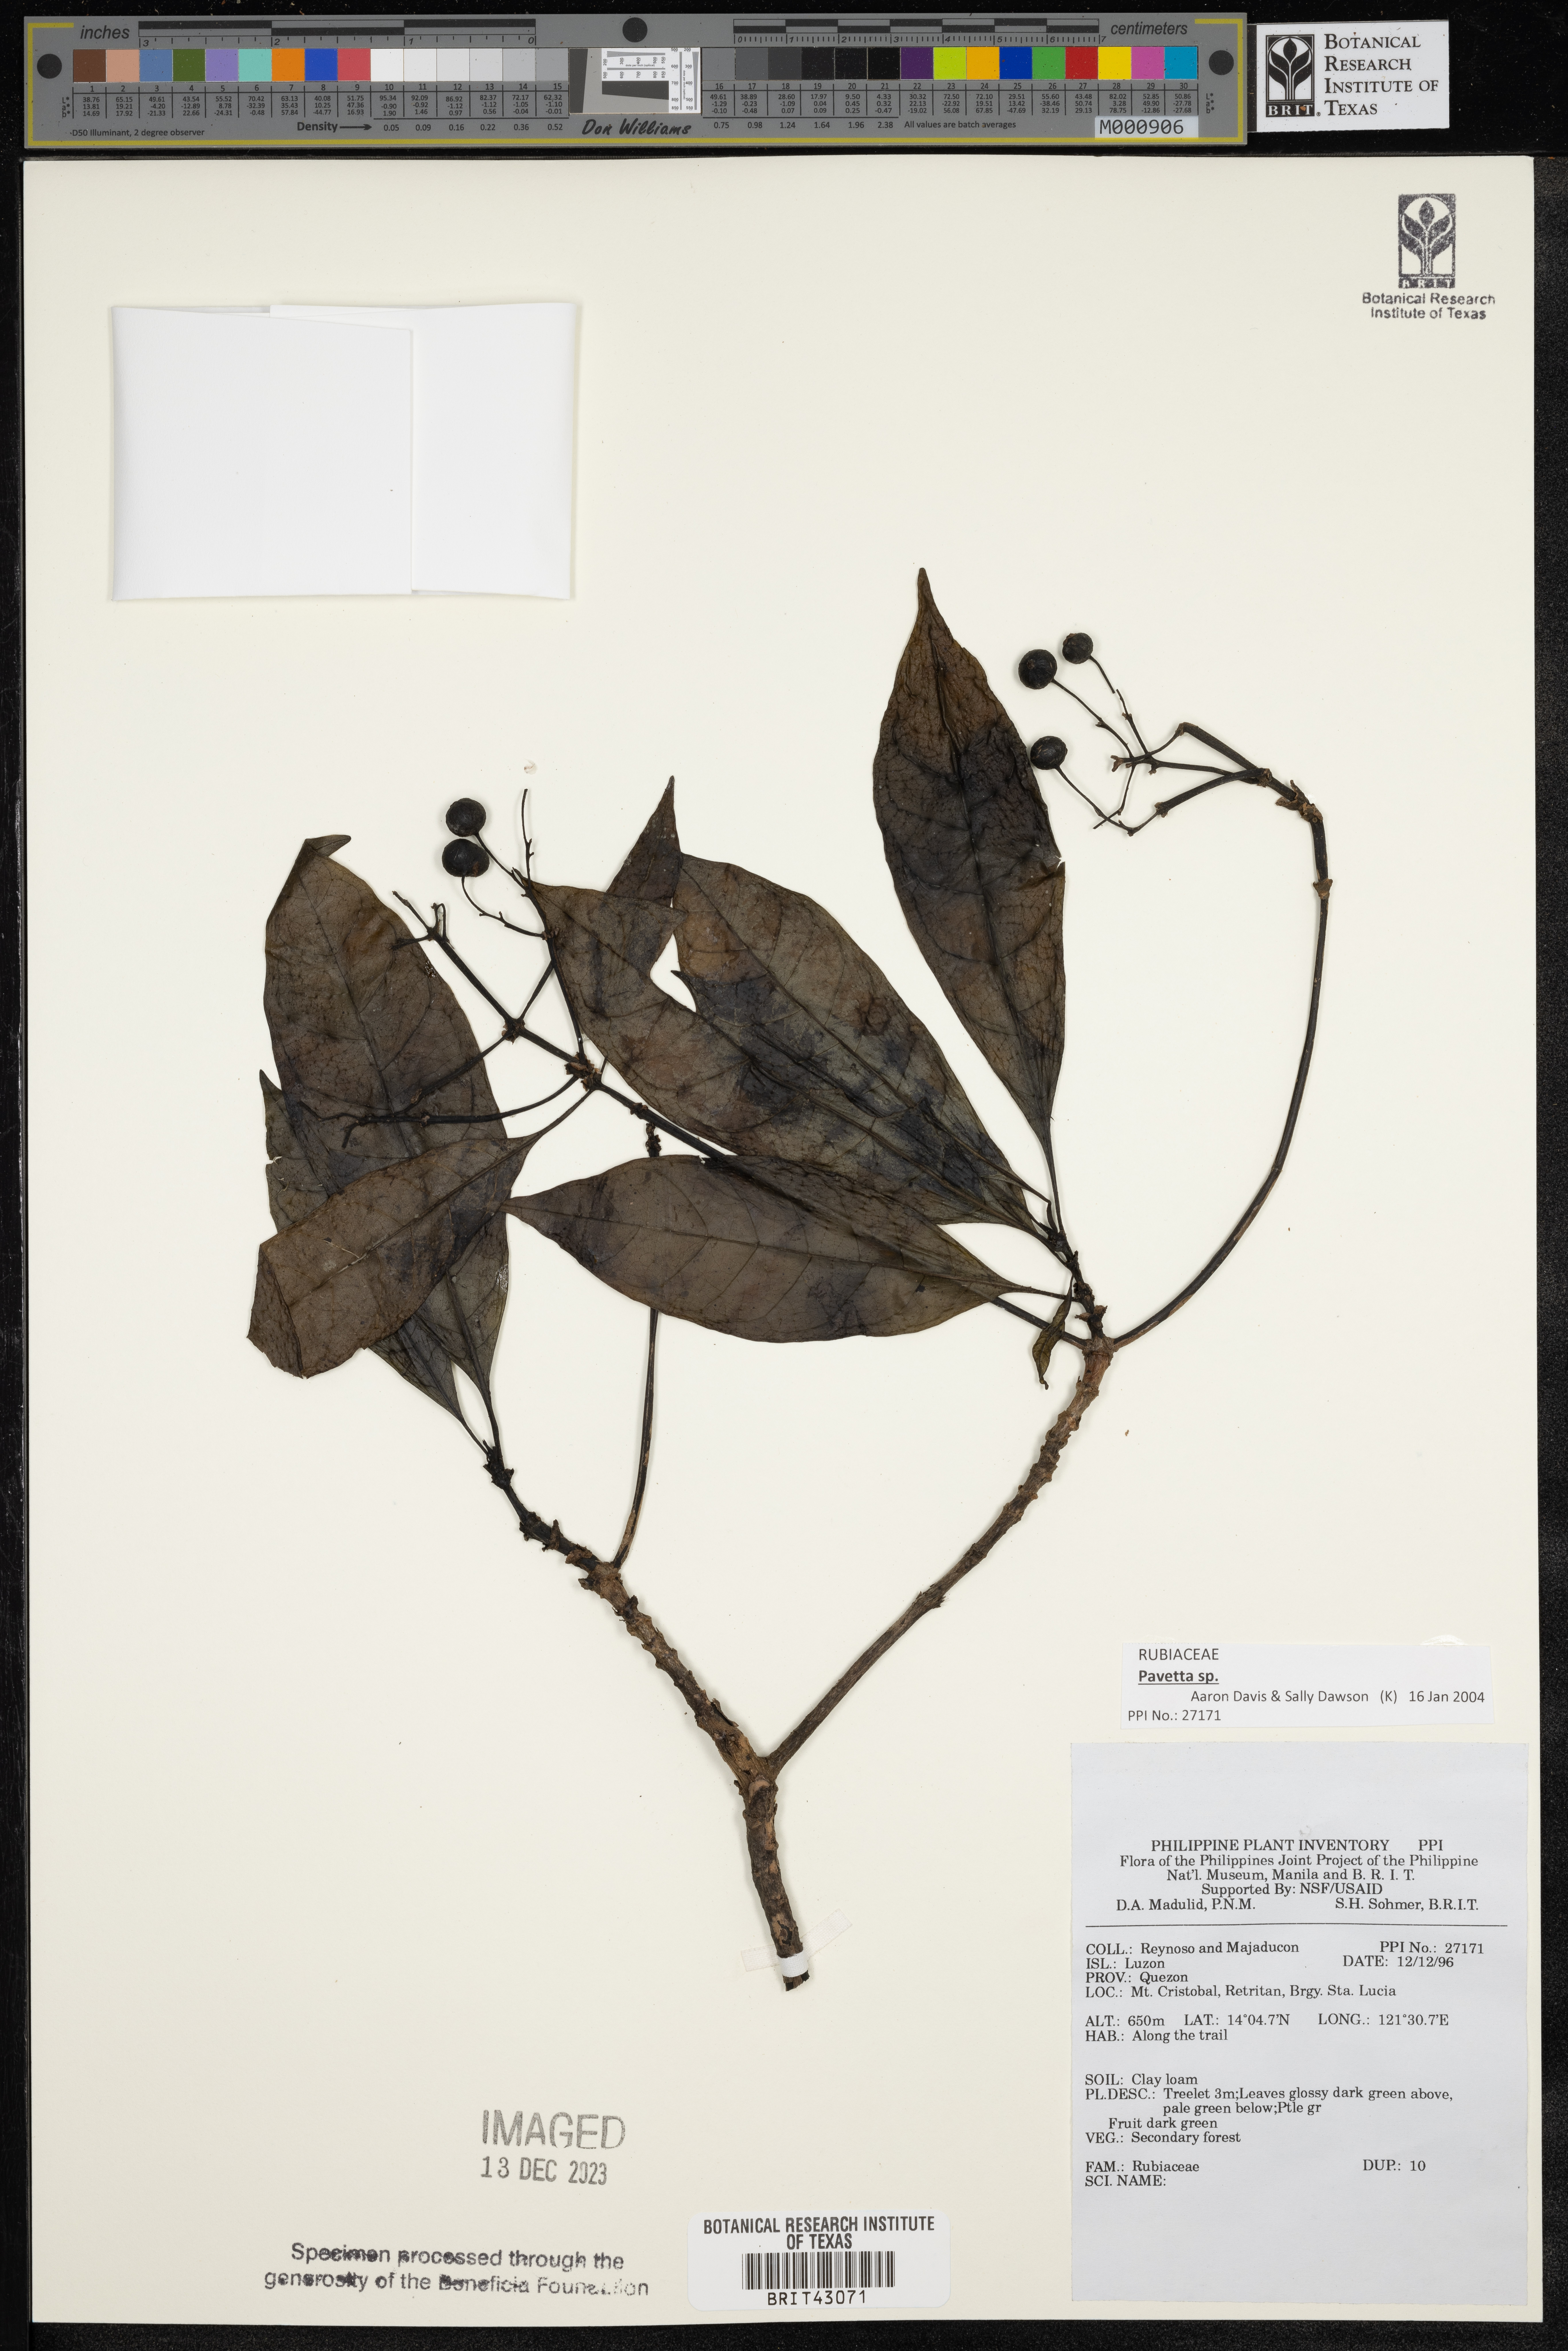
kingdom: Plantae
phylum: Tracheophyta
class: Magnoliopsida
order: Gentianales
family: Rubiaceae
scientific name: Rubiaceae
